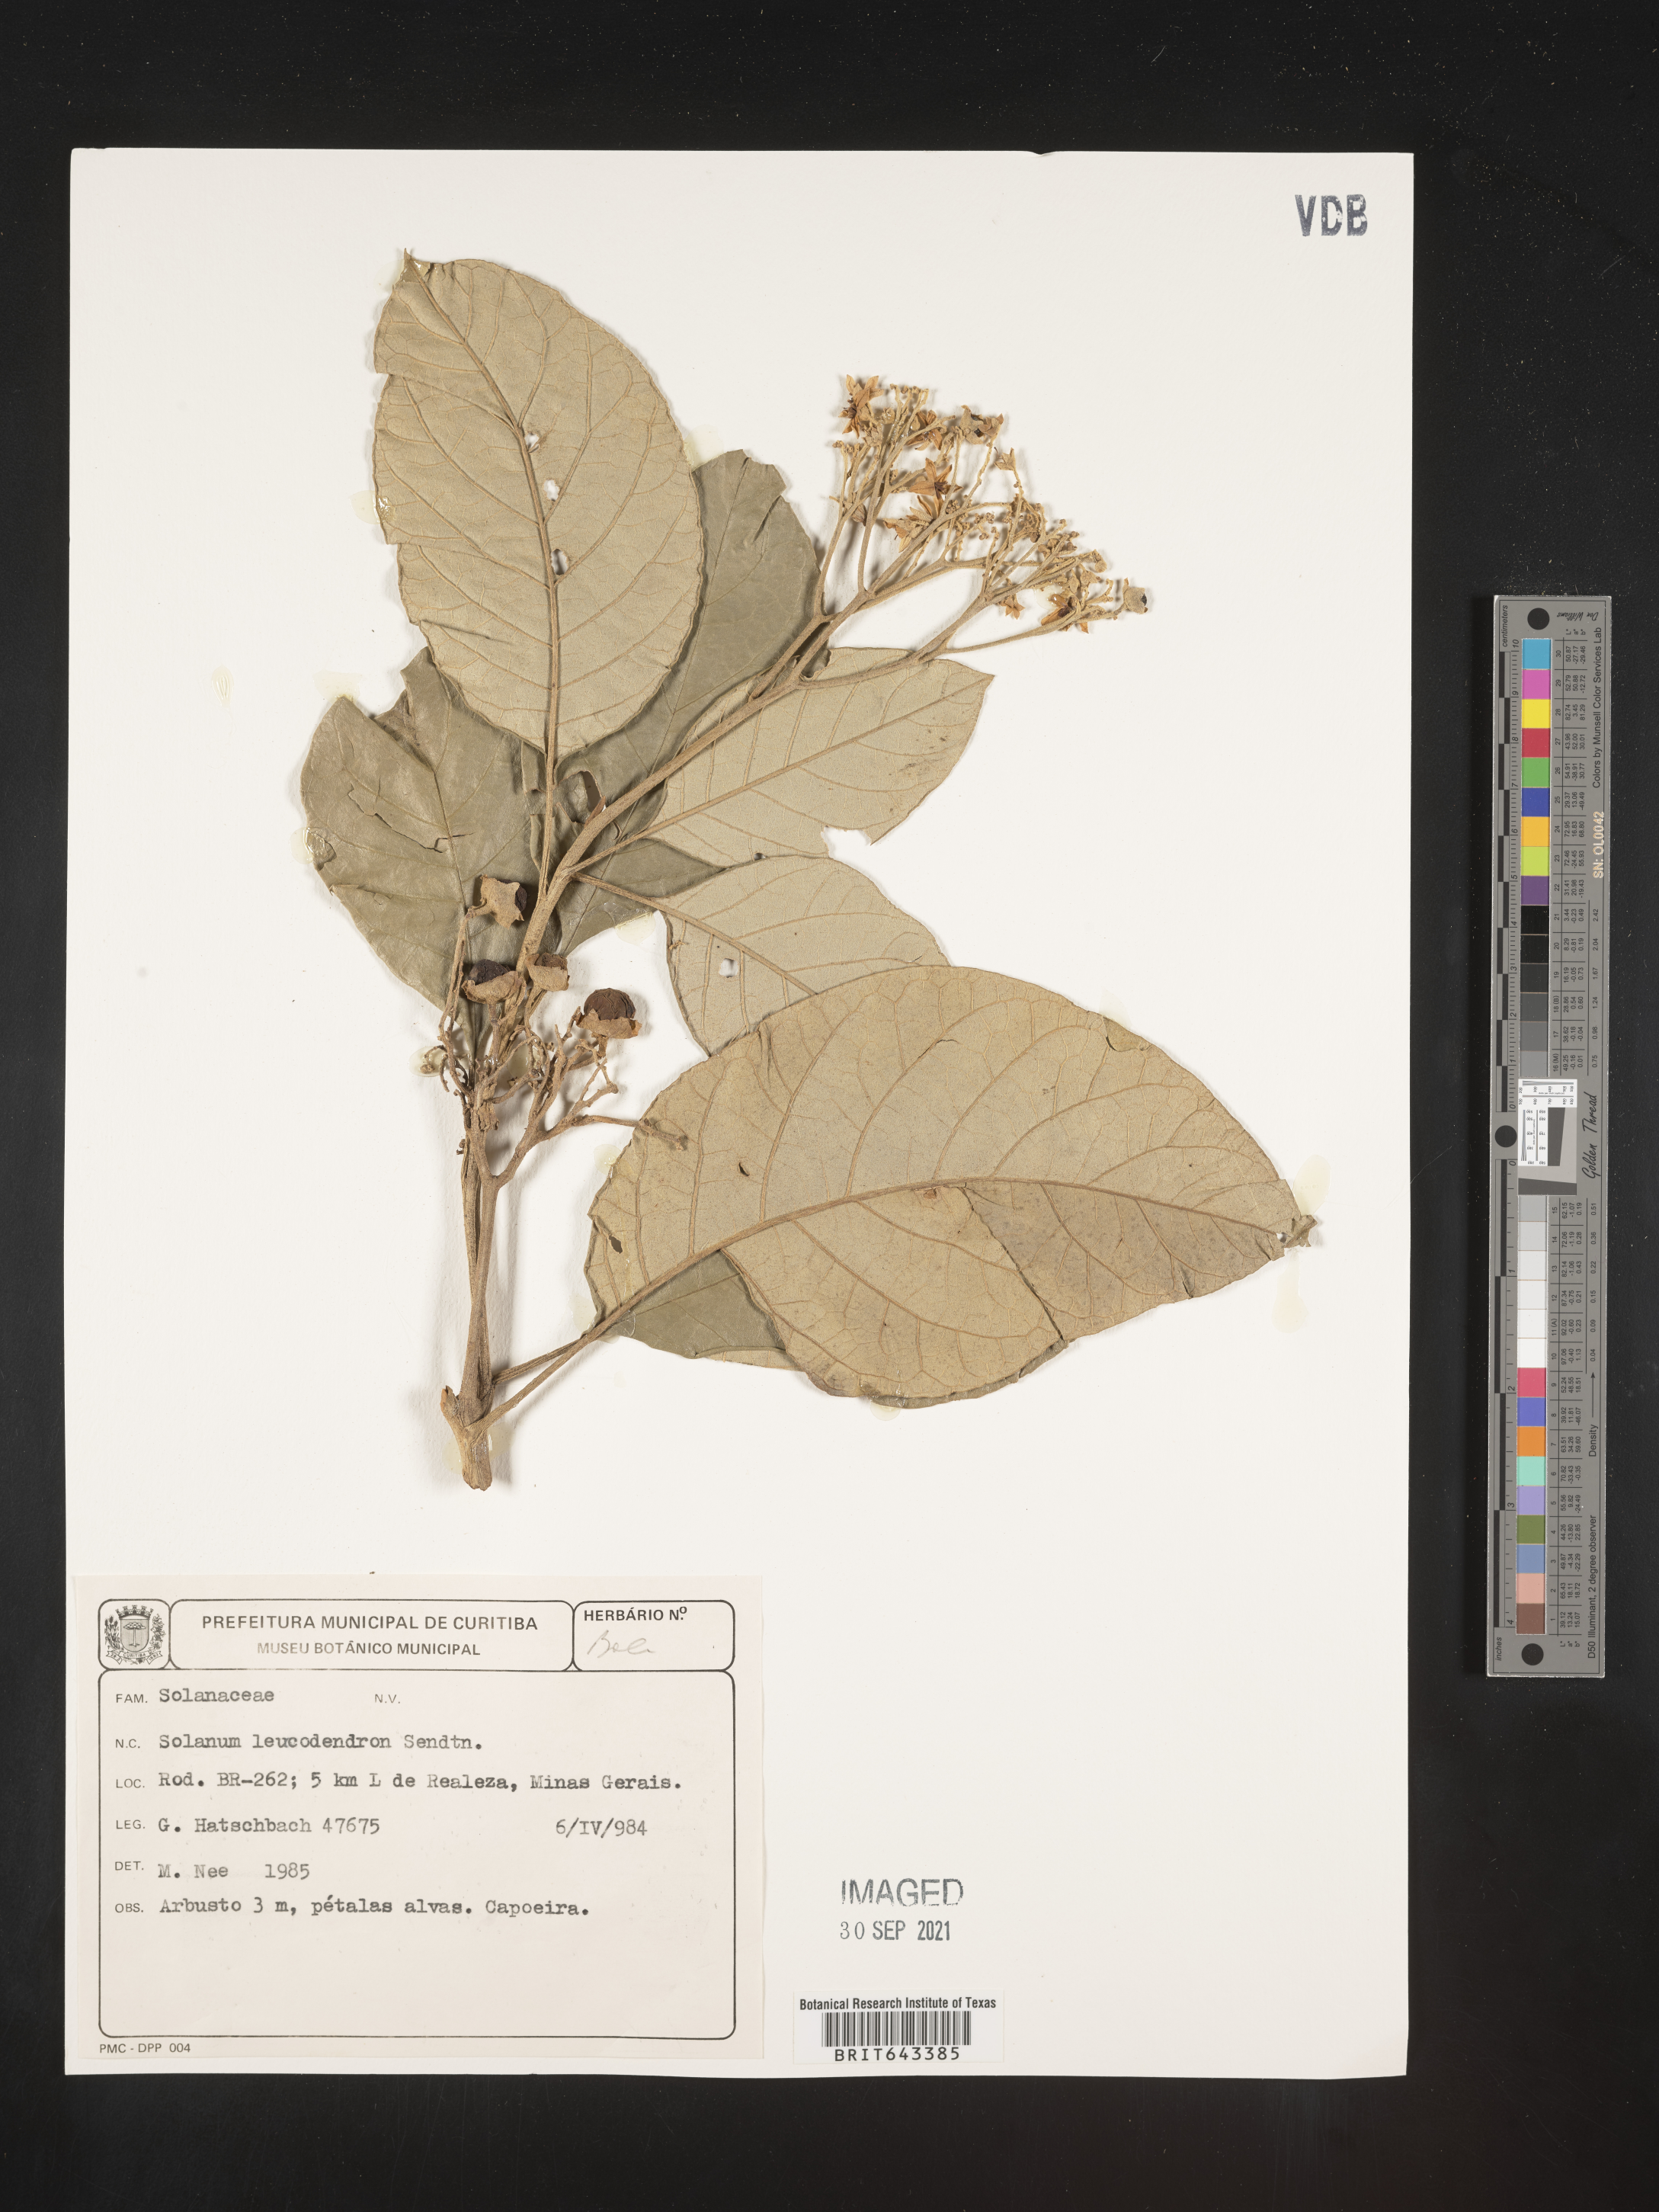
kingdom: Plantae
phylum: Tracheophyta
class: Magnoliopsida
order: Solanales
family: Solanaceae
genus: Solanum
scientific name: Solanum
